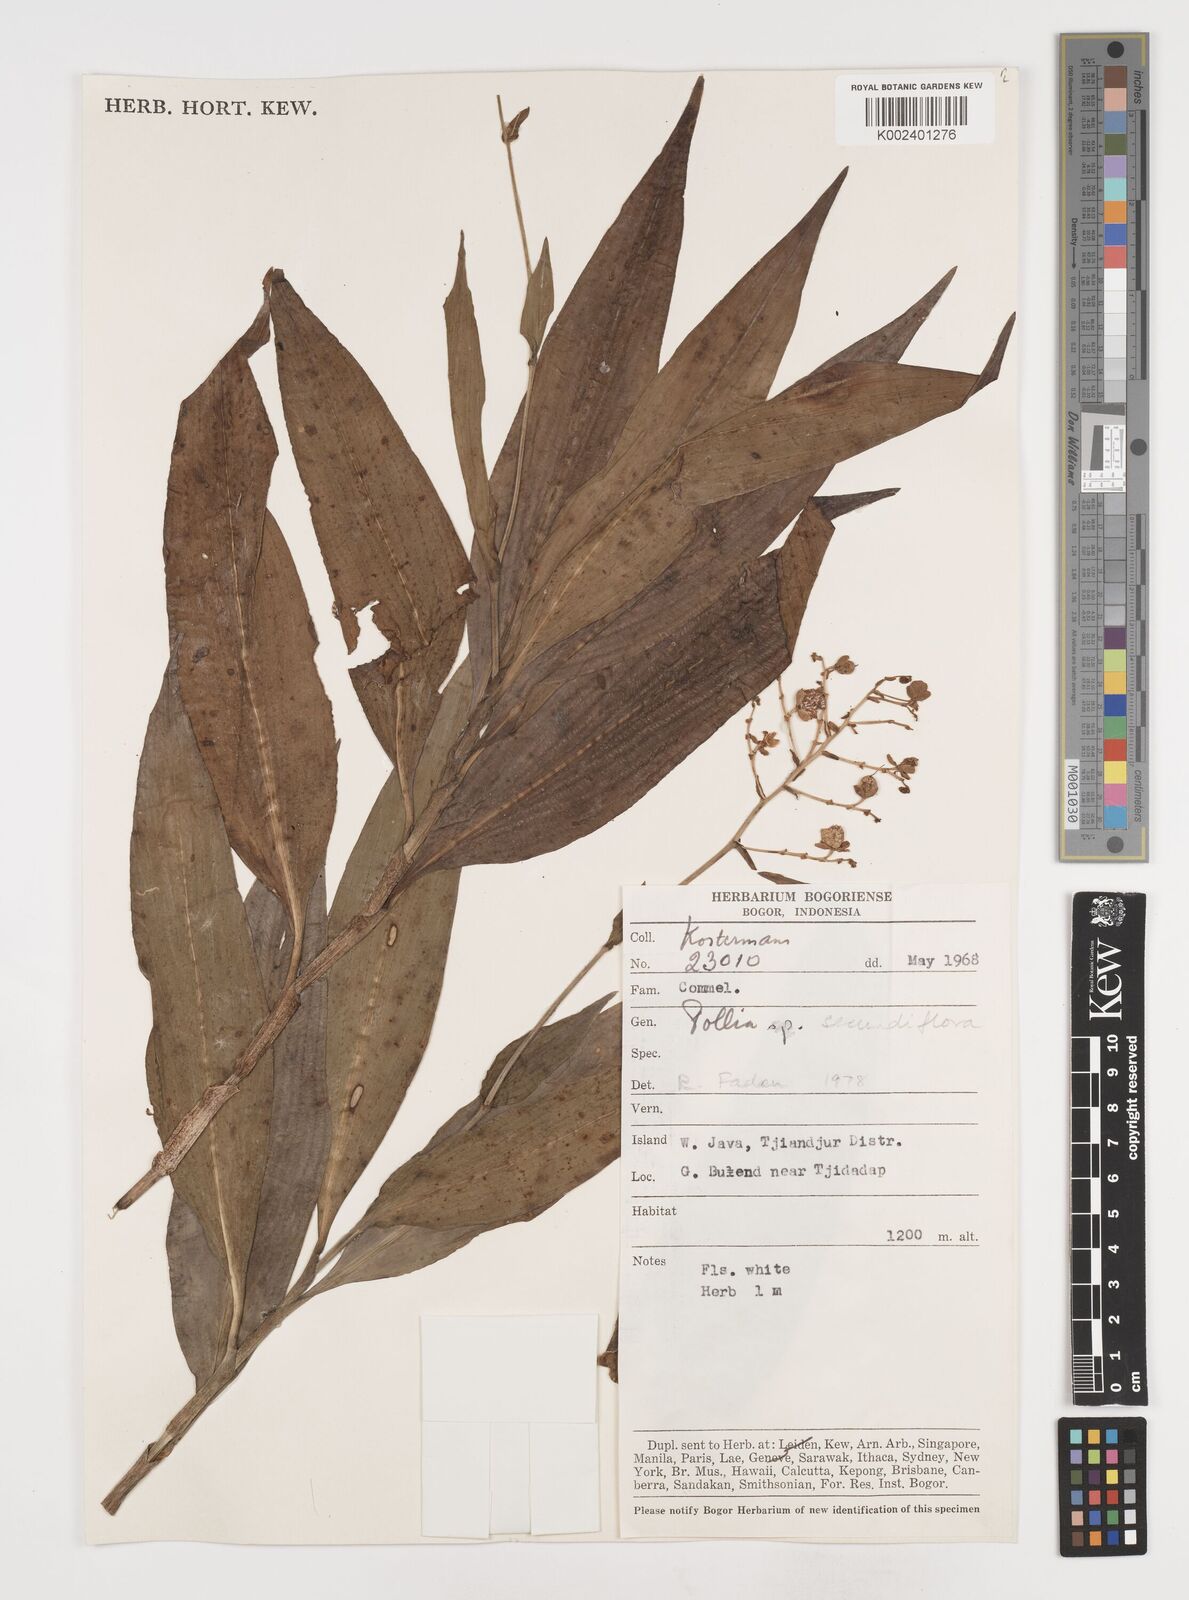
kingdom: Plantae
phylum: Tracheophyta
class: Liliopsida
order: Commelinales
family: Commelinaceae
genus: Pollia
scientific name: Pollia secundiflora
